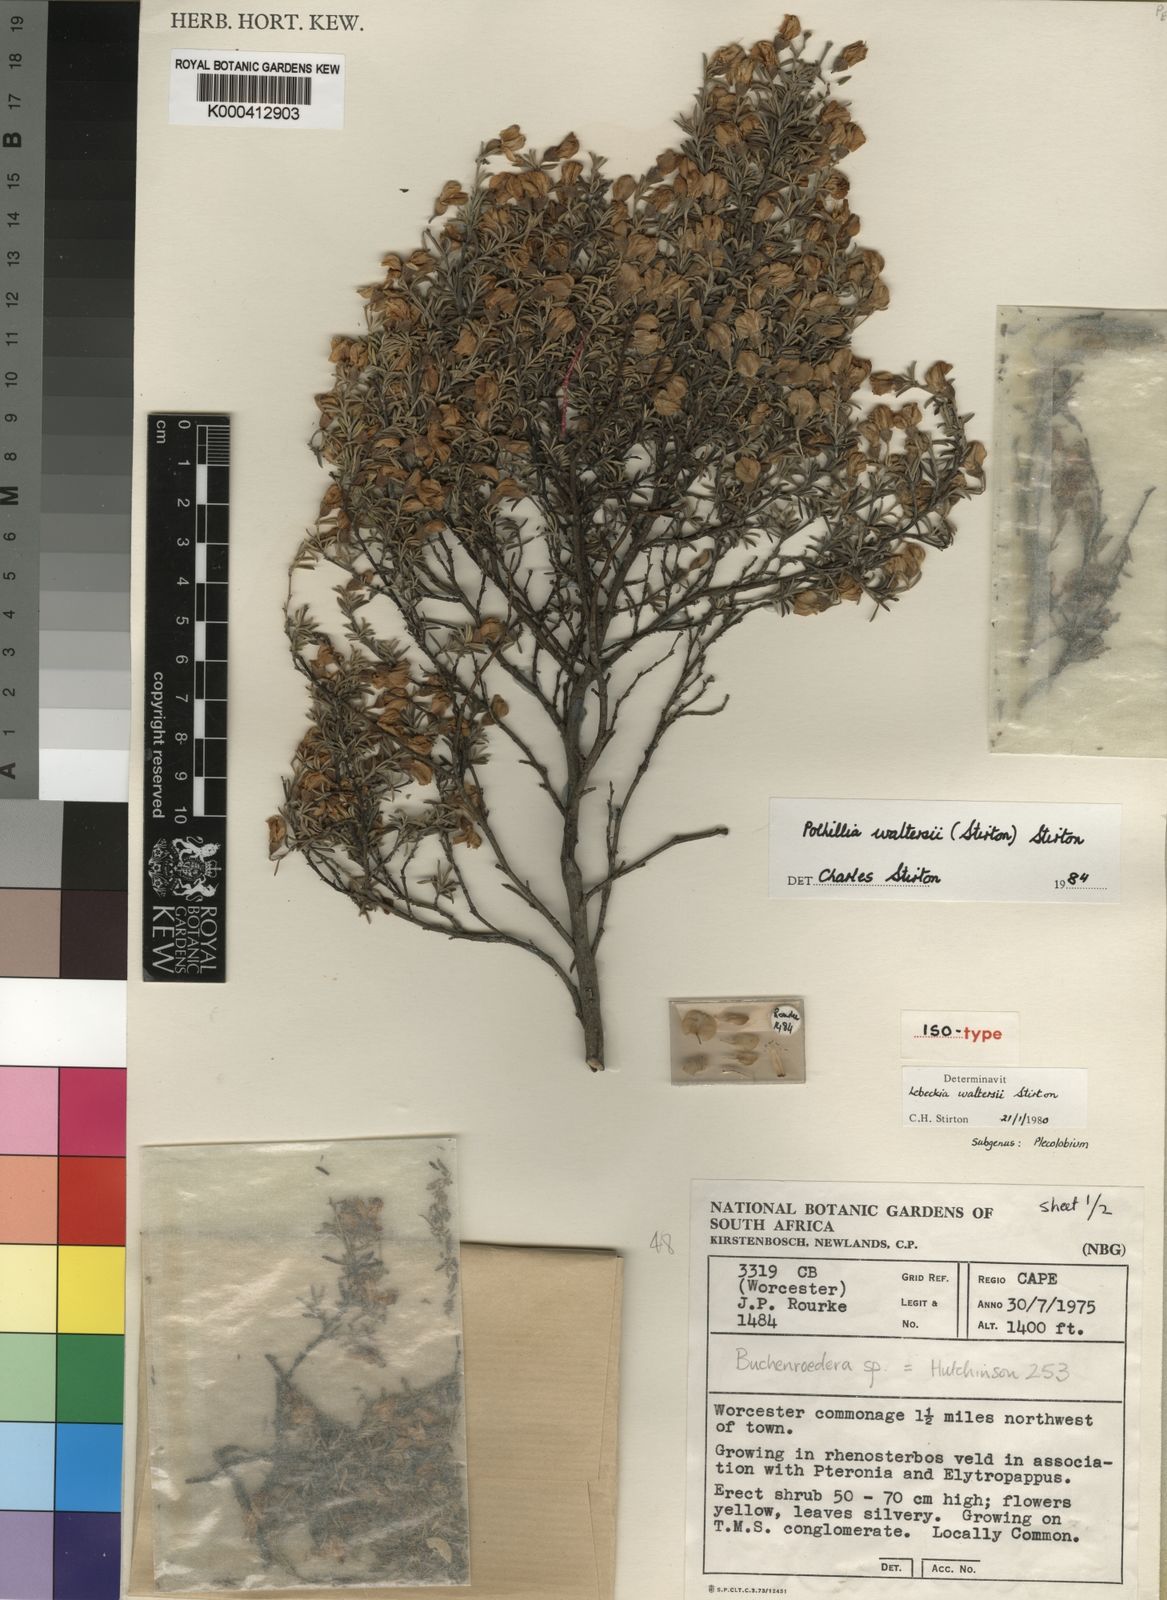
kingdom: Plantae
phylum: Tracheophyta
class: Magnoliopsida
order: Fabales
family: Fabaceae
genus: Polhillia
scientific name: Polhillia obsoleta
